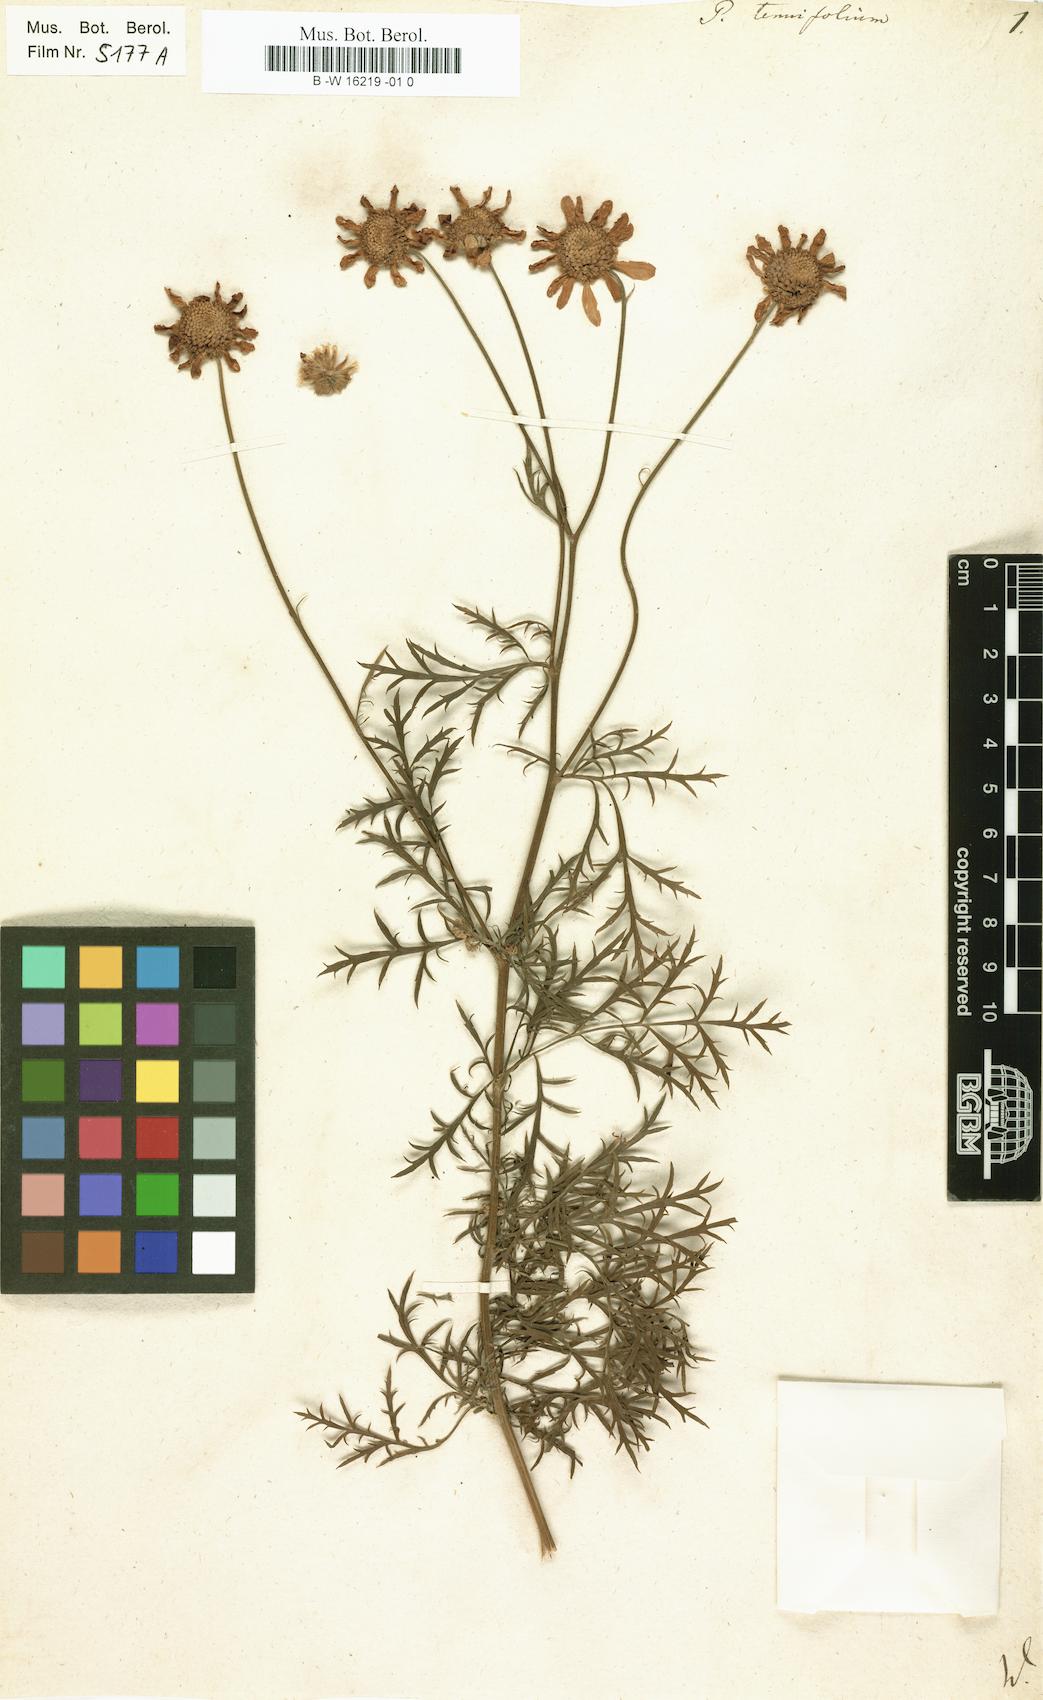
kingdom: Plantae
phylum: Tracheophyta
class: Magnoliopsida
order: Asterales
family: Asteraceae
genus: Tanacetum
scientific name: Tanacetum corymbosum
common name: Scentless feverfew
